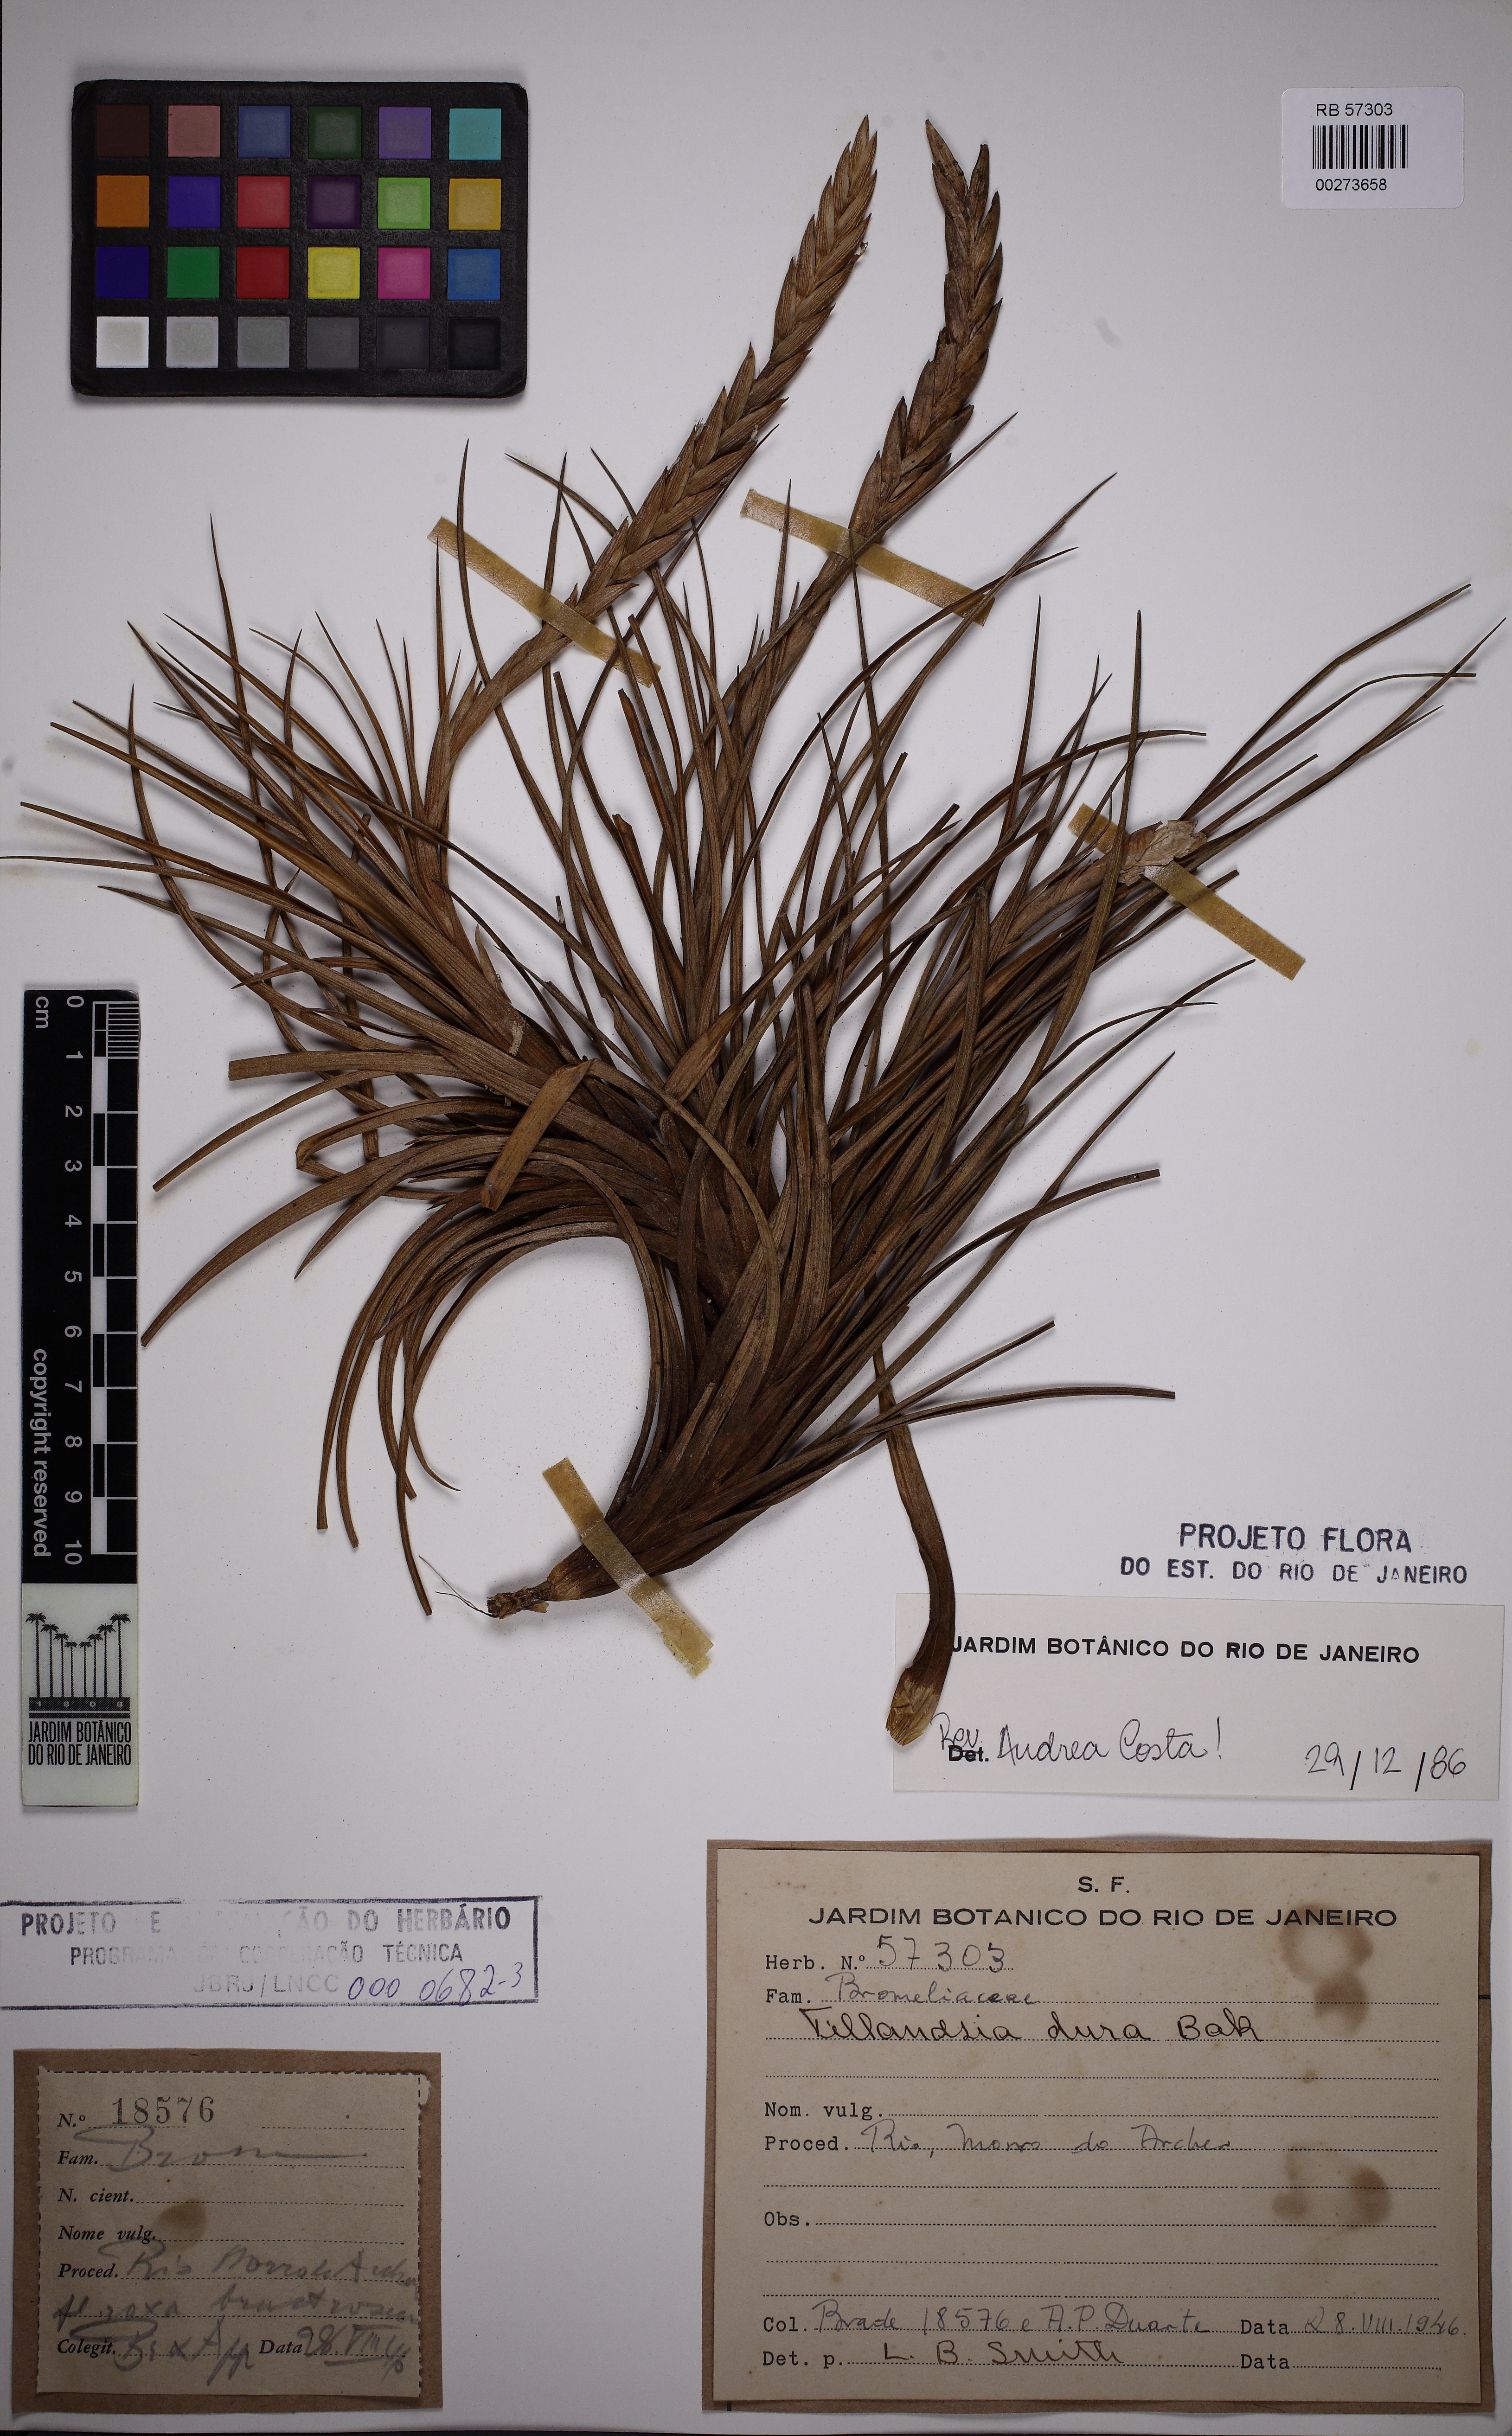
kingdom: Plantae
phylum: Tracheophyta
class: Liliopsida
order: Poales
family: Bromeliaceae
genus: Tillandsia
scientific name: Tillandsia dura
